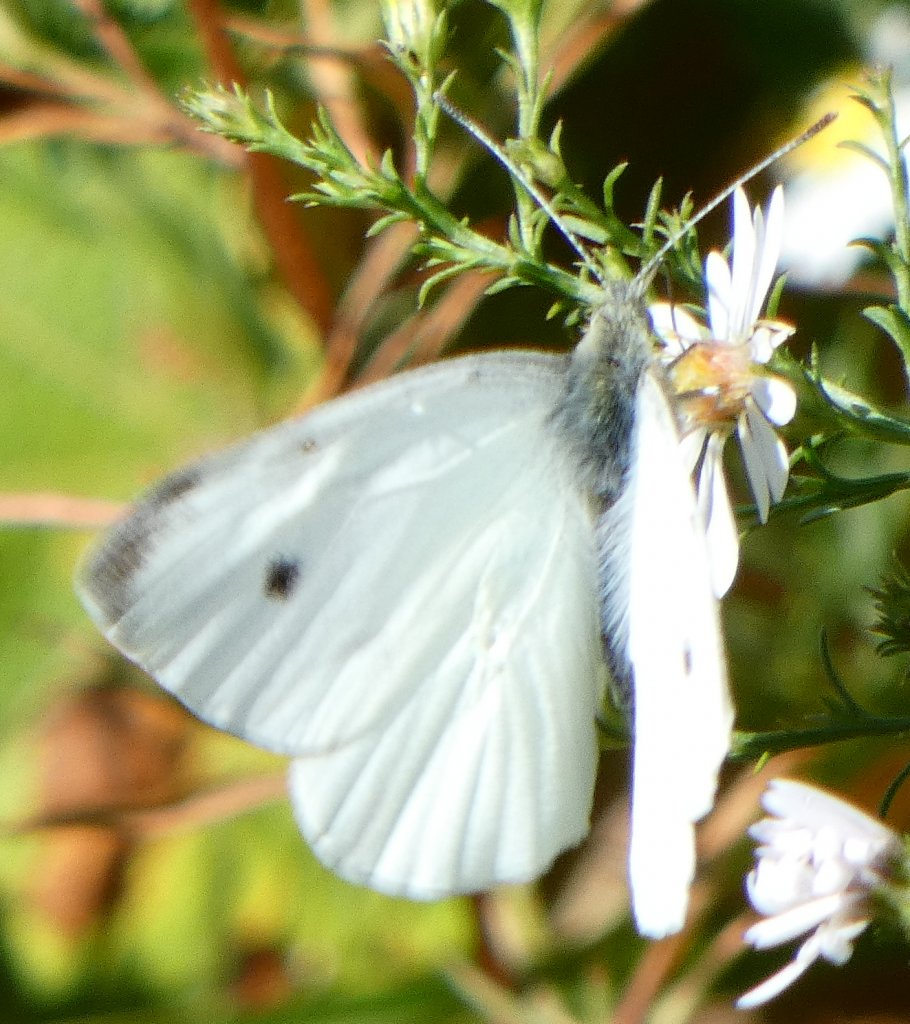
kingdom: Animalia
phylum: Arthropoda
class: Insecta
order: Lepidoptera
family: Pieridae
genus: Pieris
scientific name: Pieris rapae
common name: Cabbage White
